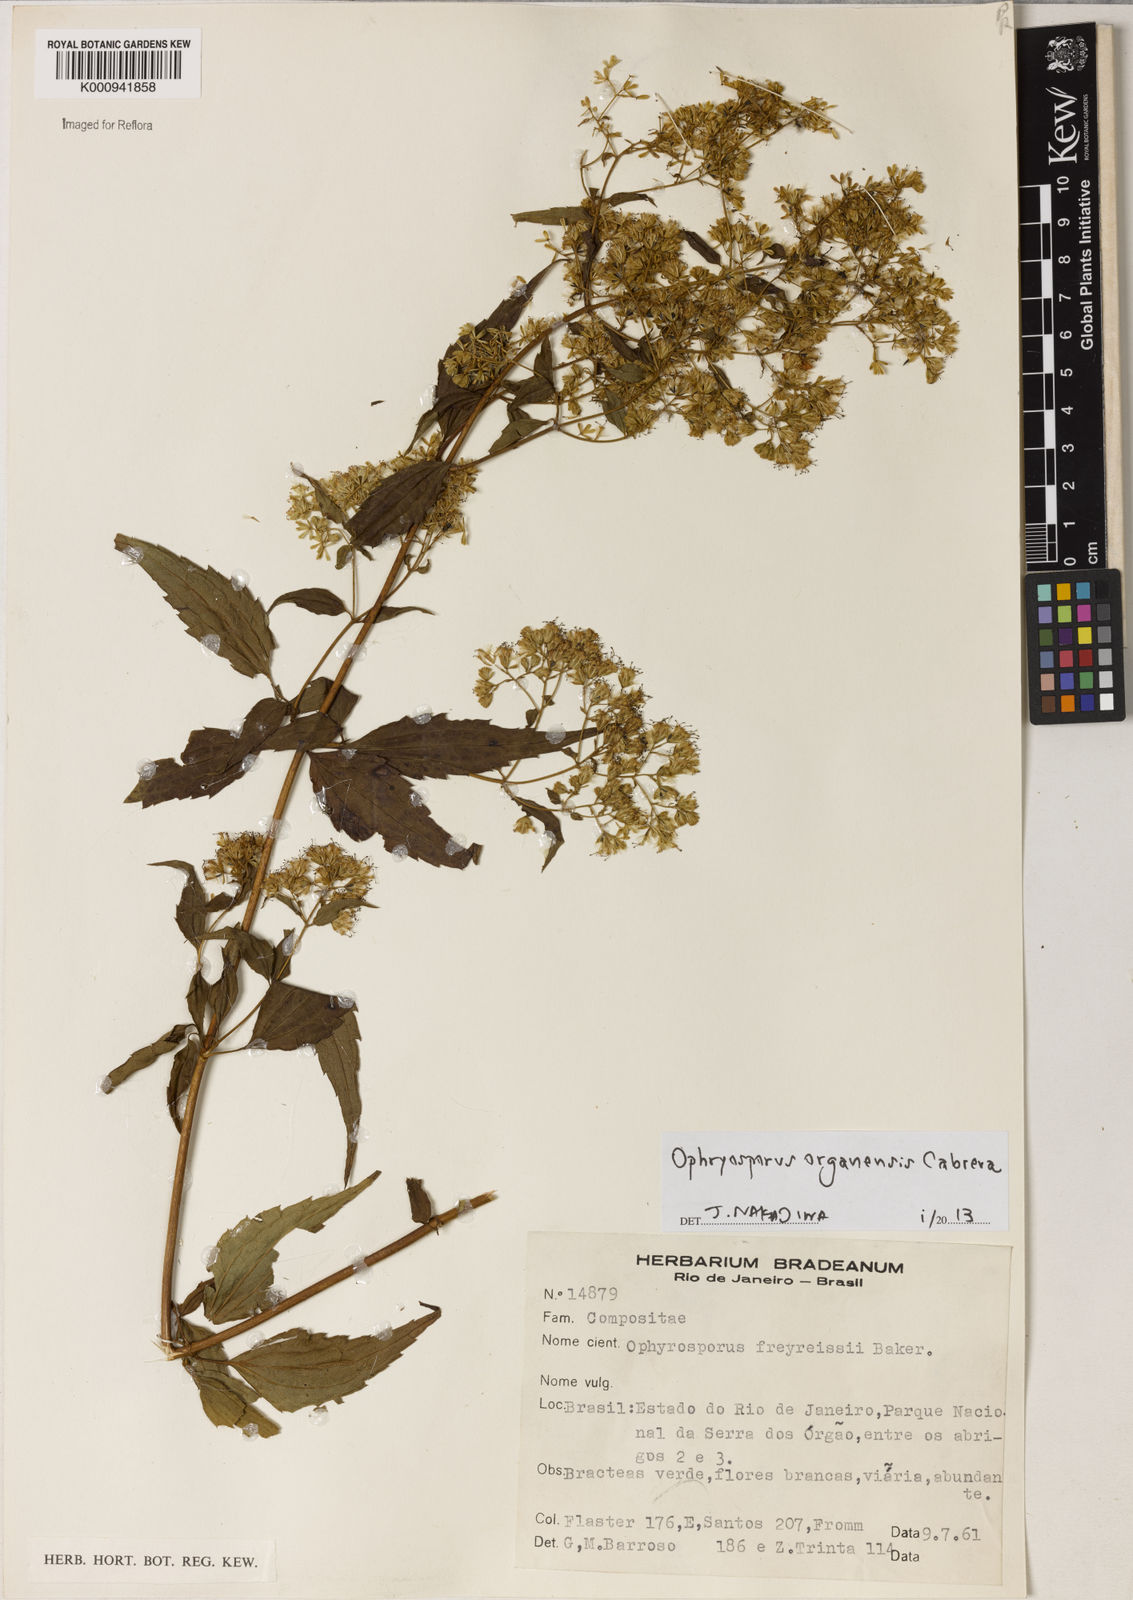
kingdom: Plantae
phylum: Tracheophyta
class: Magnoliopsida
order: Asterales
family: Asteraceae
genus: Ophryosporus
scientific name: Ophryosporus organensis
